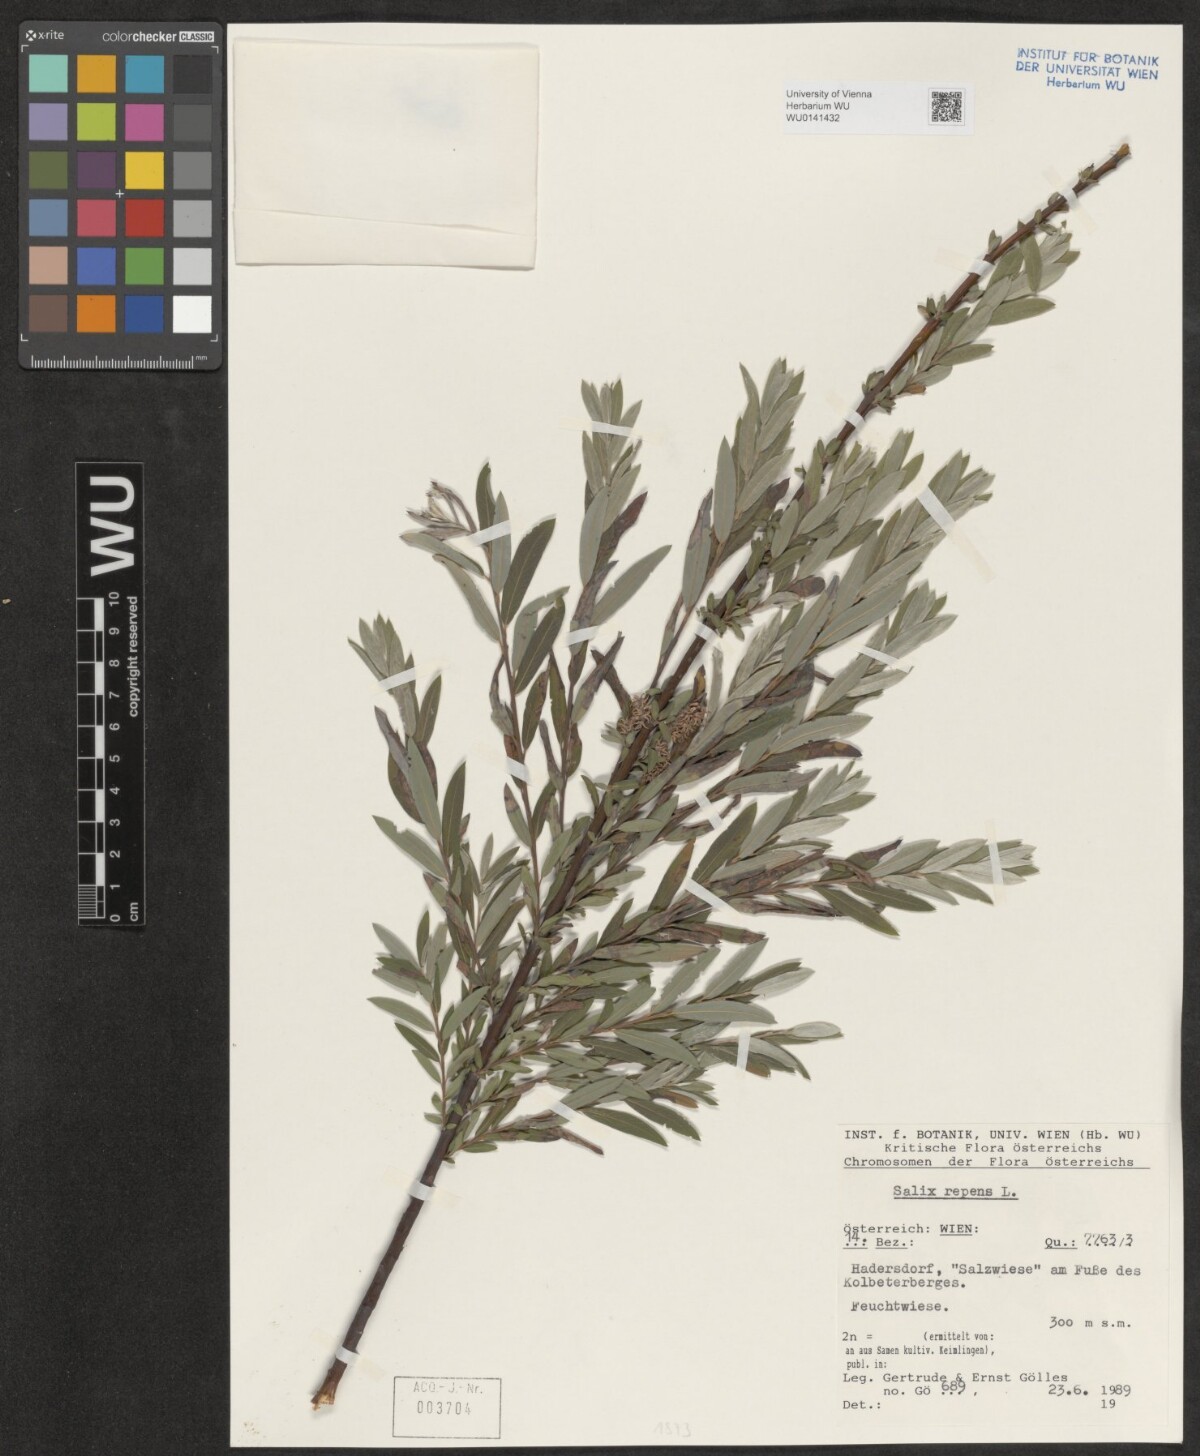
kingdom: Plantae
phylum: Tracheophyta
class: Magnoliopsida
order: Malpighiales
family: Salicaceae
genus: Salix
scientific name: Salix repens
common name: Creeping willow
